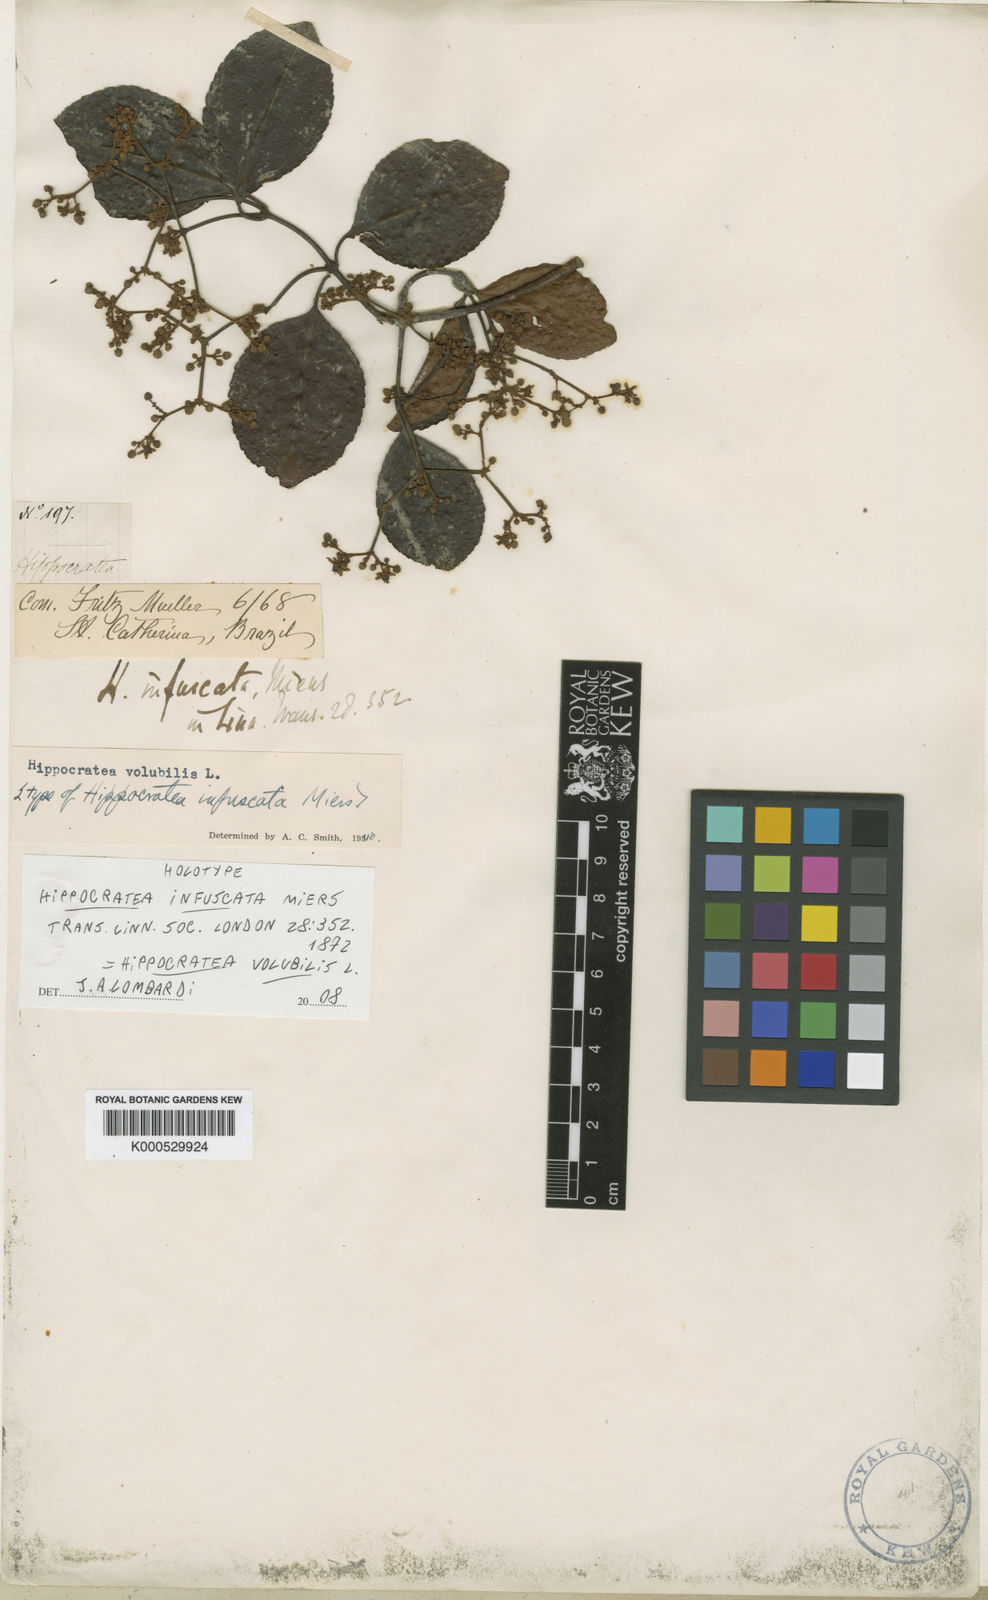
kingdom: Plantae
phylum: Tracheophyta
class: Magnoliopsida
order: Celastrales
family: Celastraceae
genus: Hippocratea
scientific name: Hippocratea volubilis
